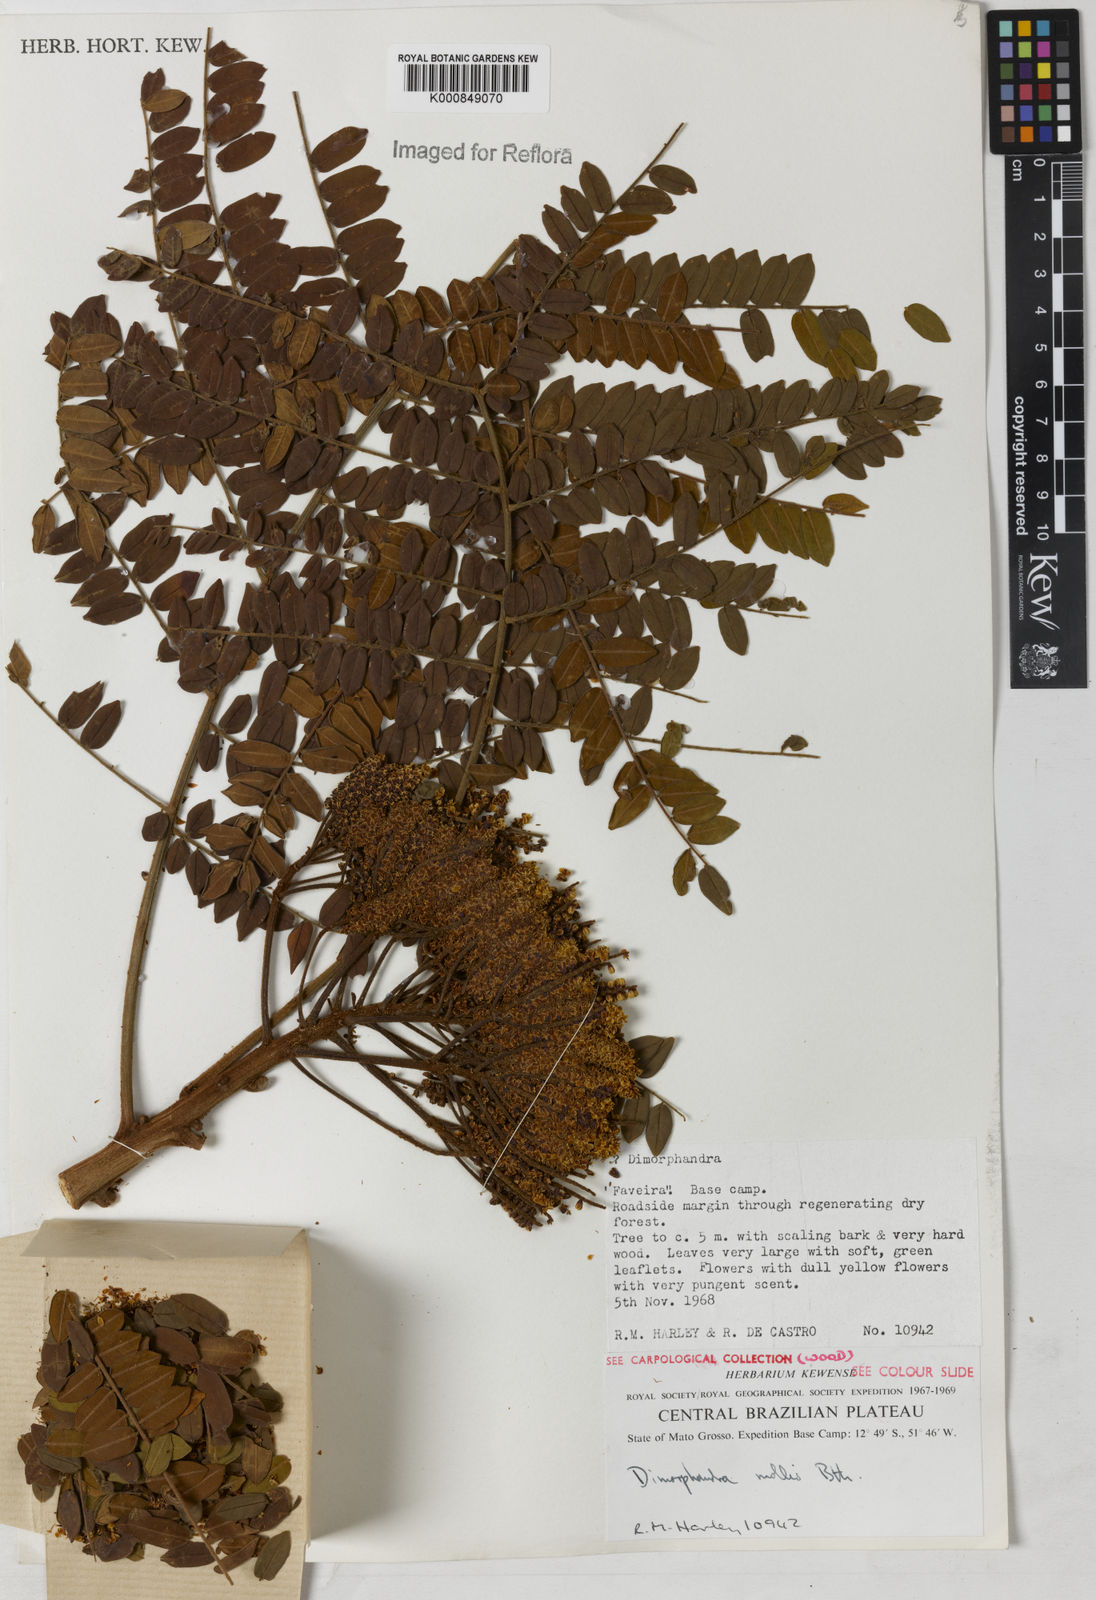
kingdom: Plantae
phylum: Tracheophyta
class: Magnoliopsida
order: Fabales
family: Fabaceae
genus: Dimorphandra
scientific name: Dimorphandra mollis
